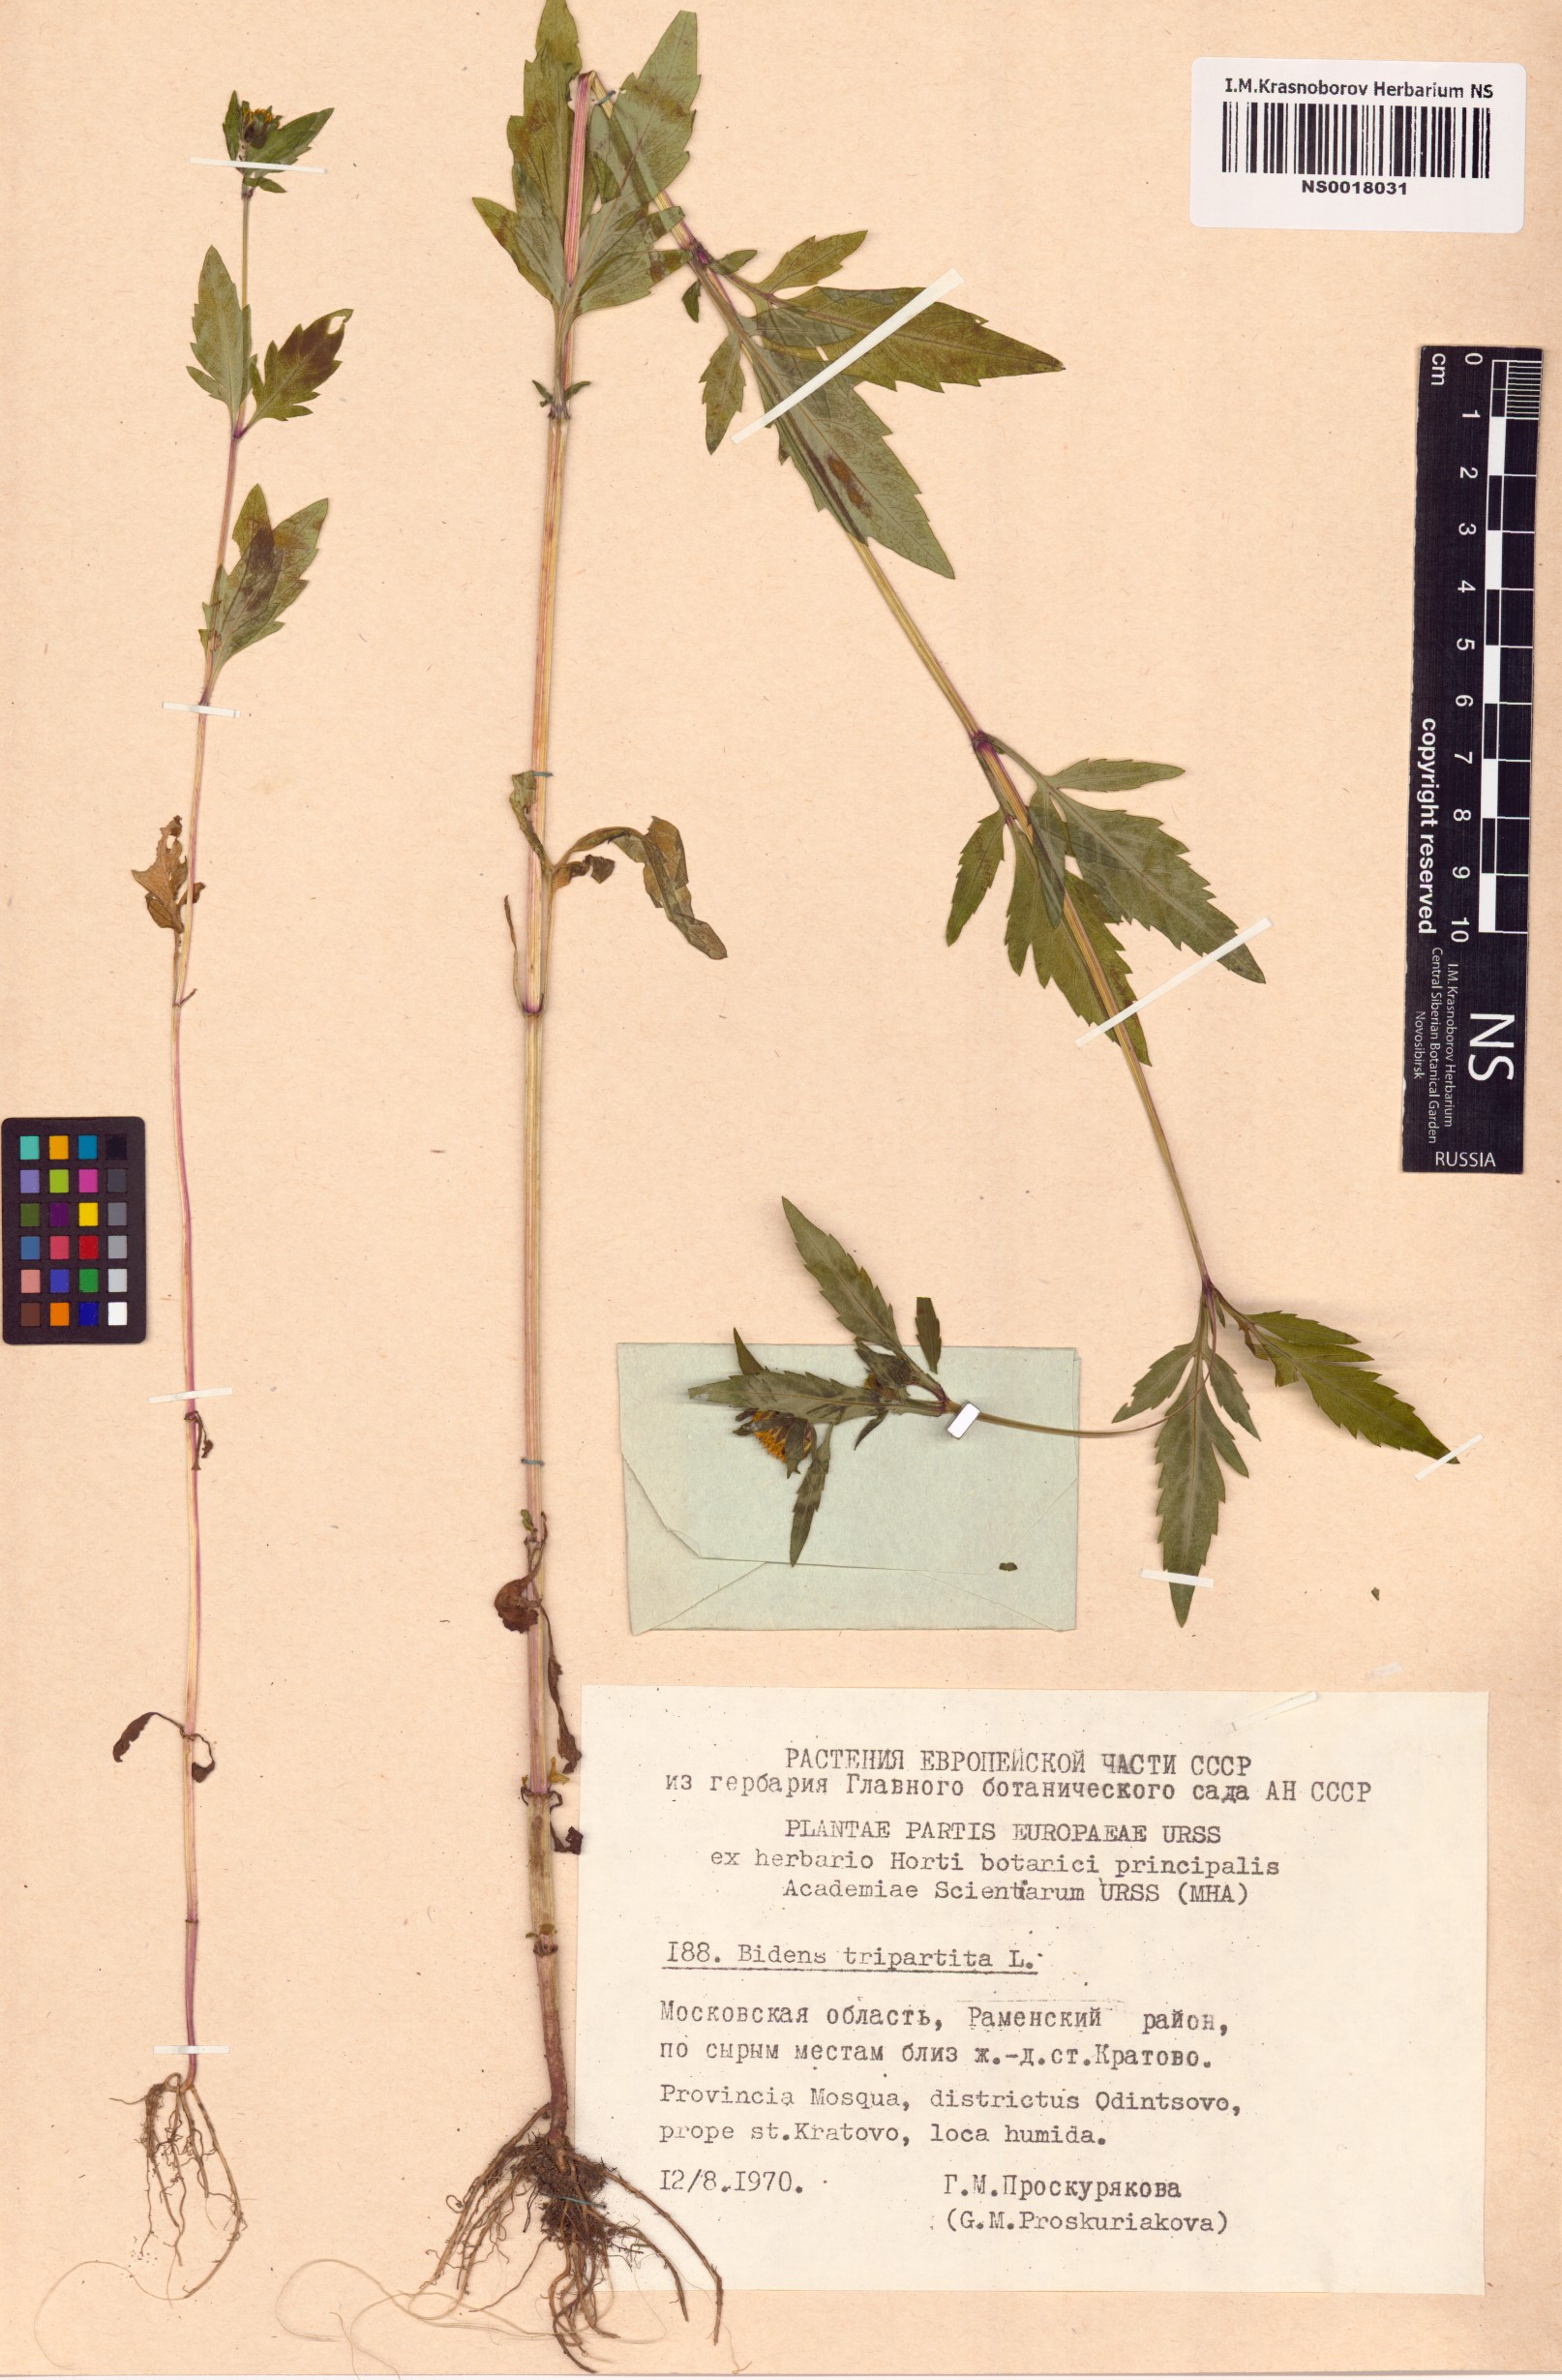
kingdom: Plantae
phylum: Tracheophyta
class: Magnoliopsida
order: Asterales
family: Asteraceae
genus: Bidens
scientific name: Bidens tripartita
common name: Trifid bur-marigold
